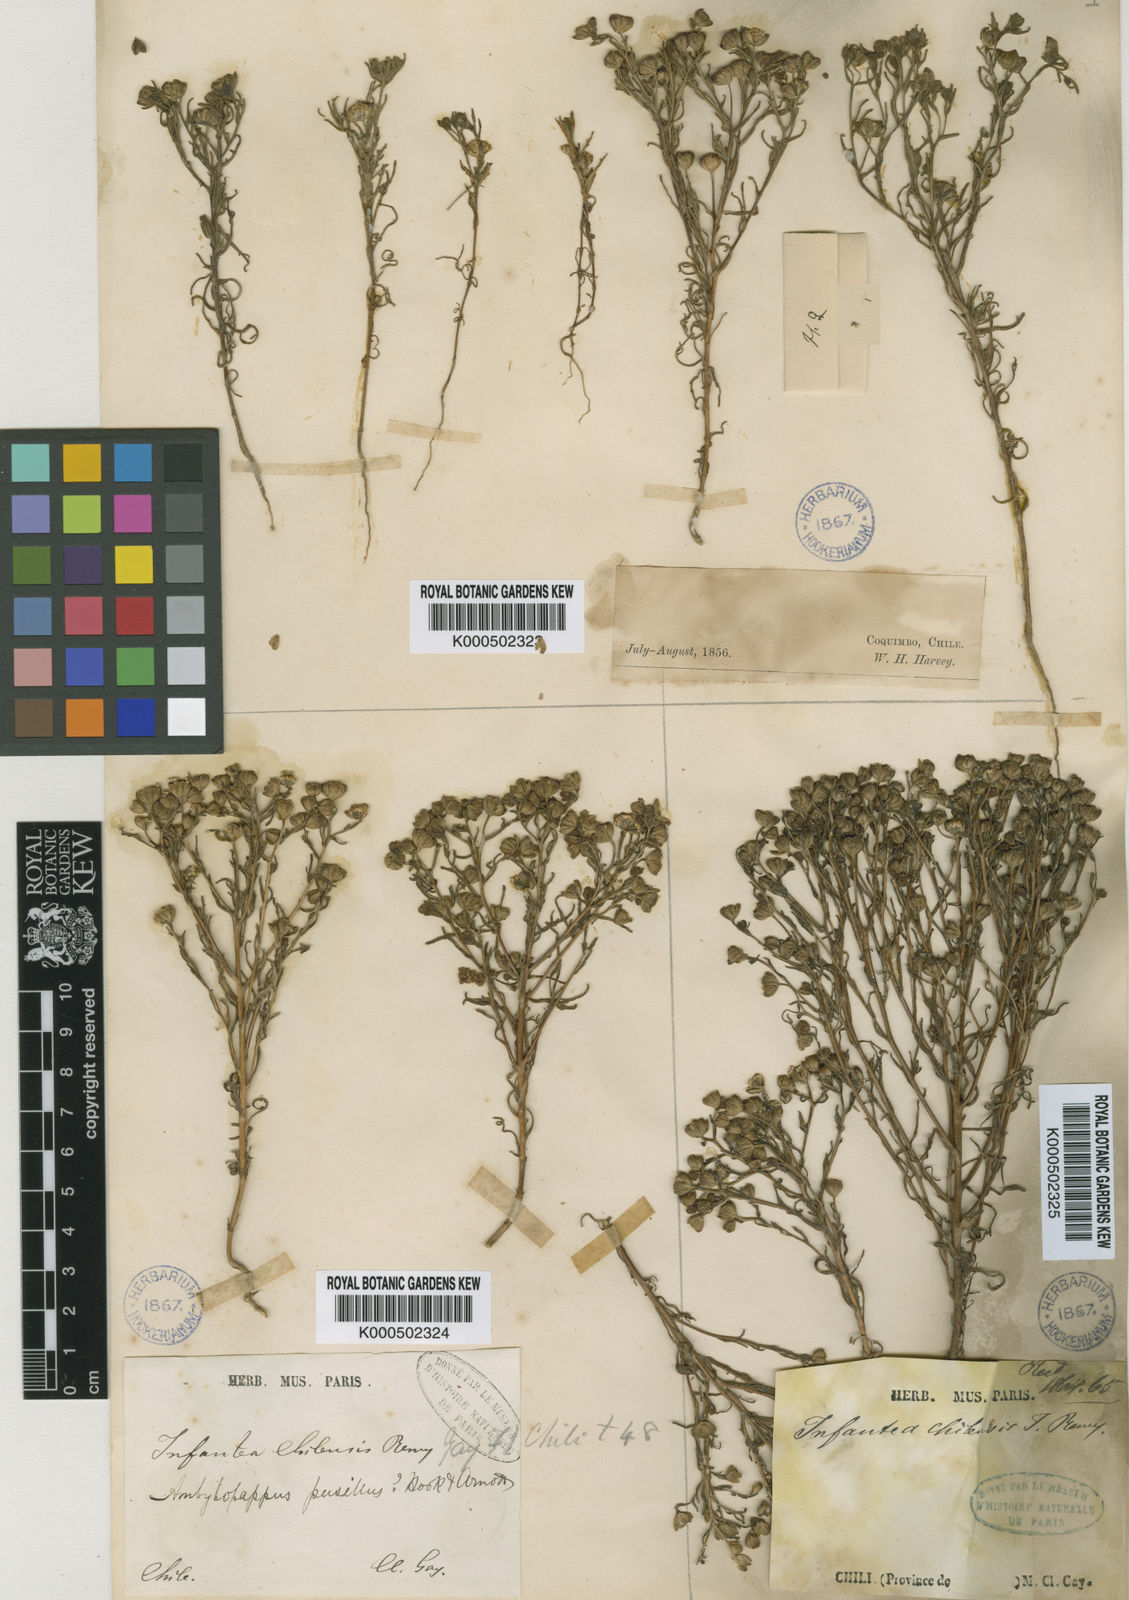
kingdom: Plantae
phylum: Tracheophyta
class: Magnoliopsida
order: Asterales
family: Asteraceae
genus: Amblyopappus
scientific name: Amblyopappus pusillus
